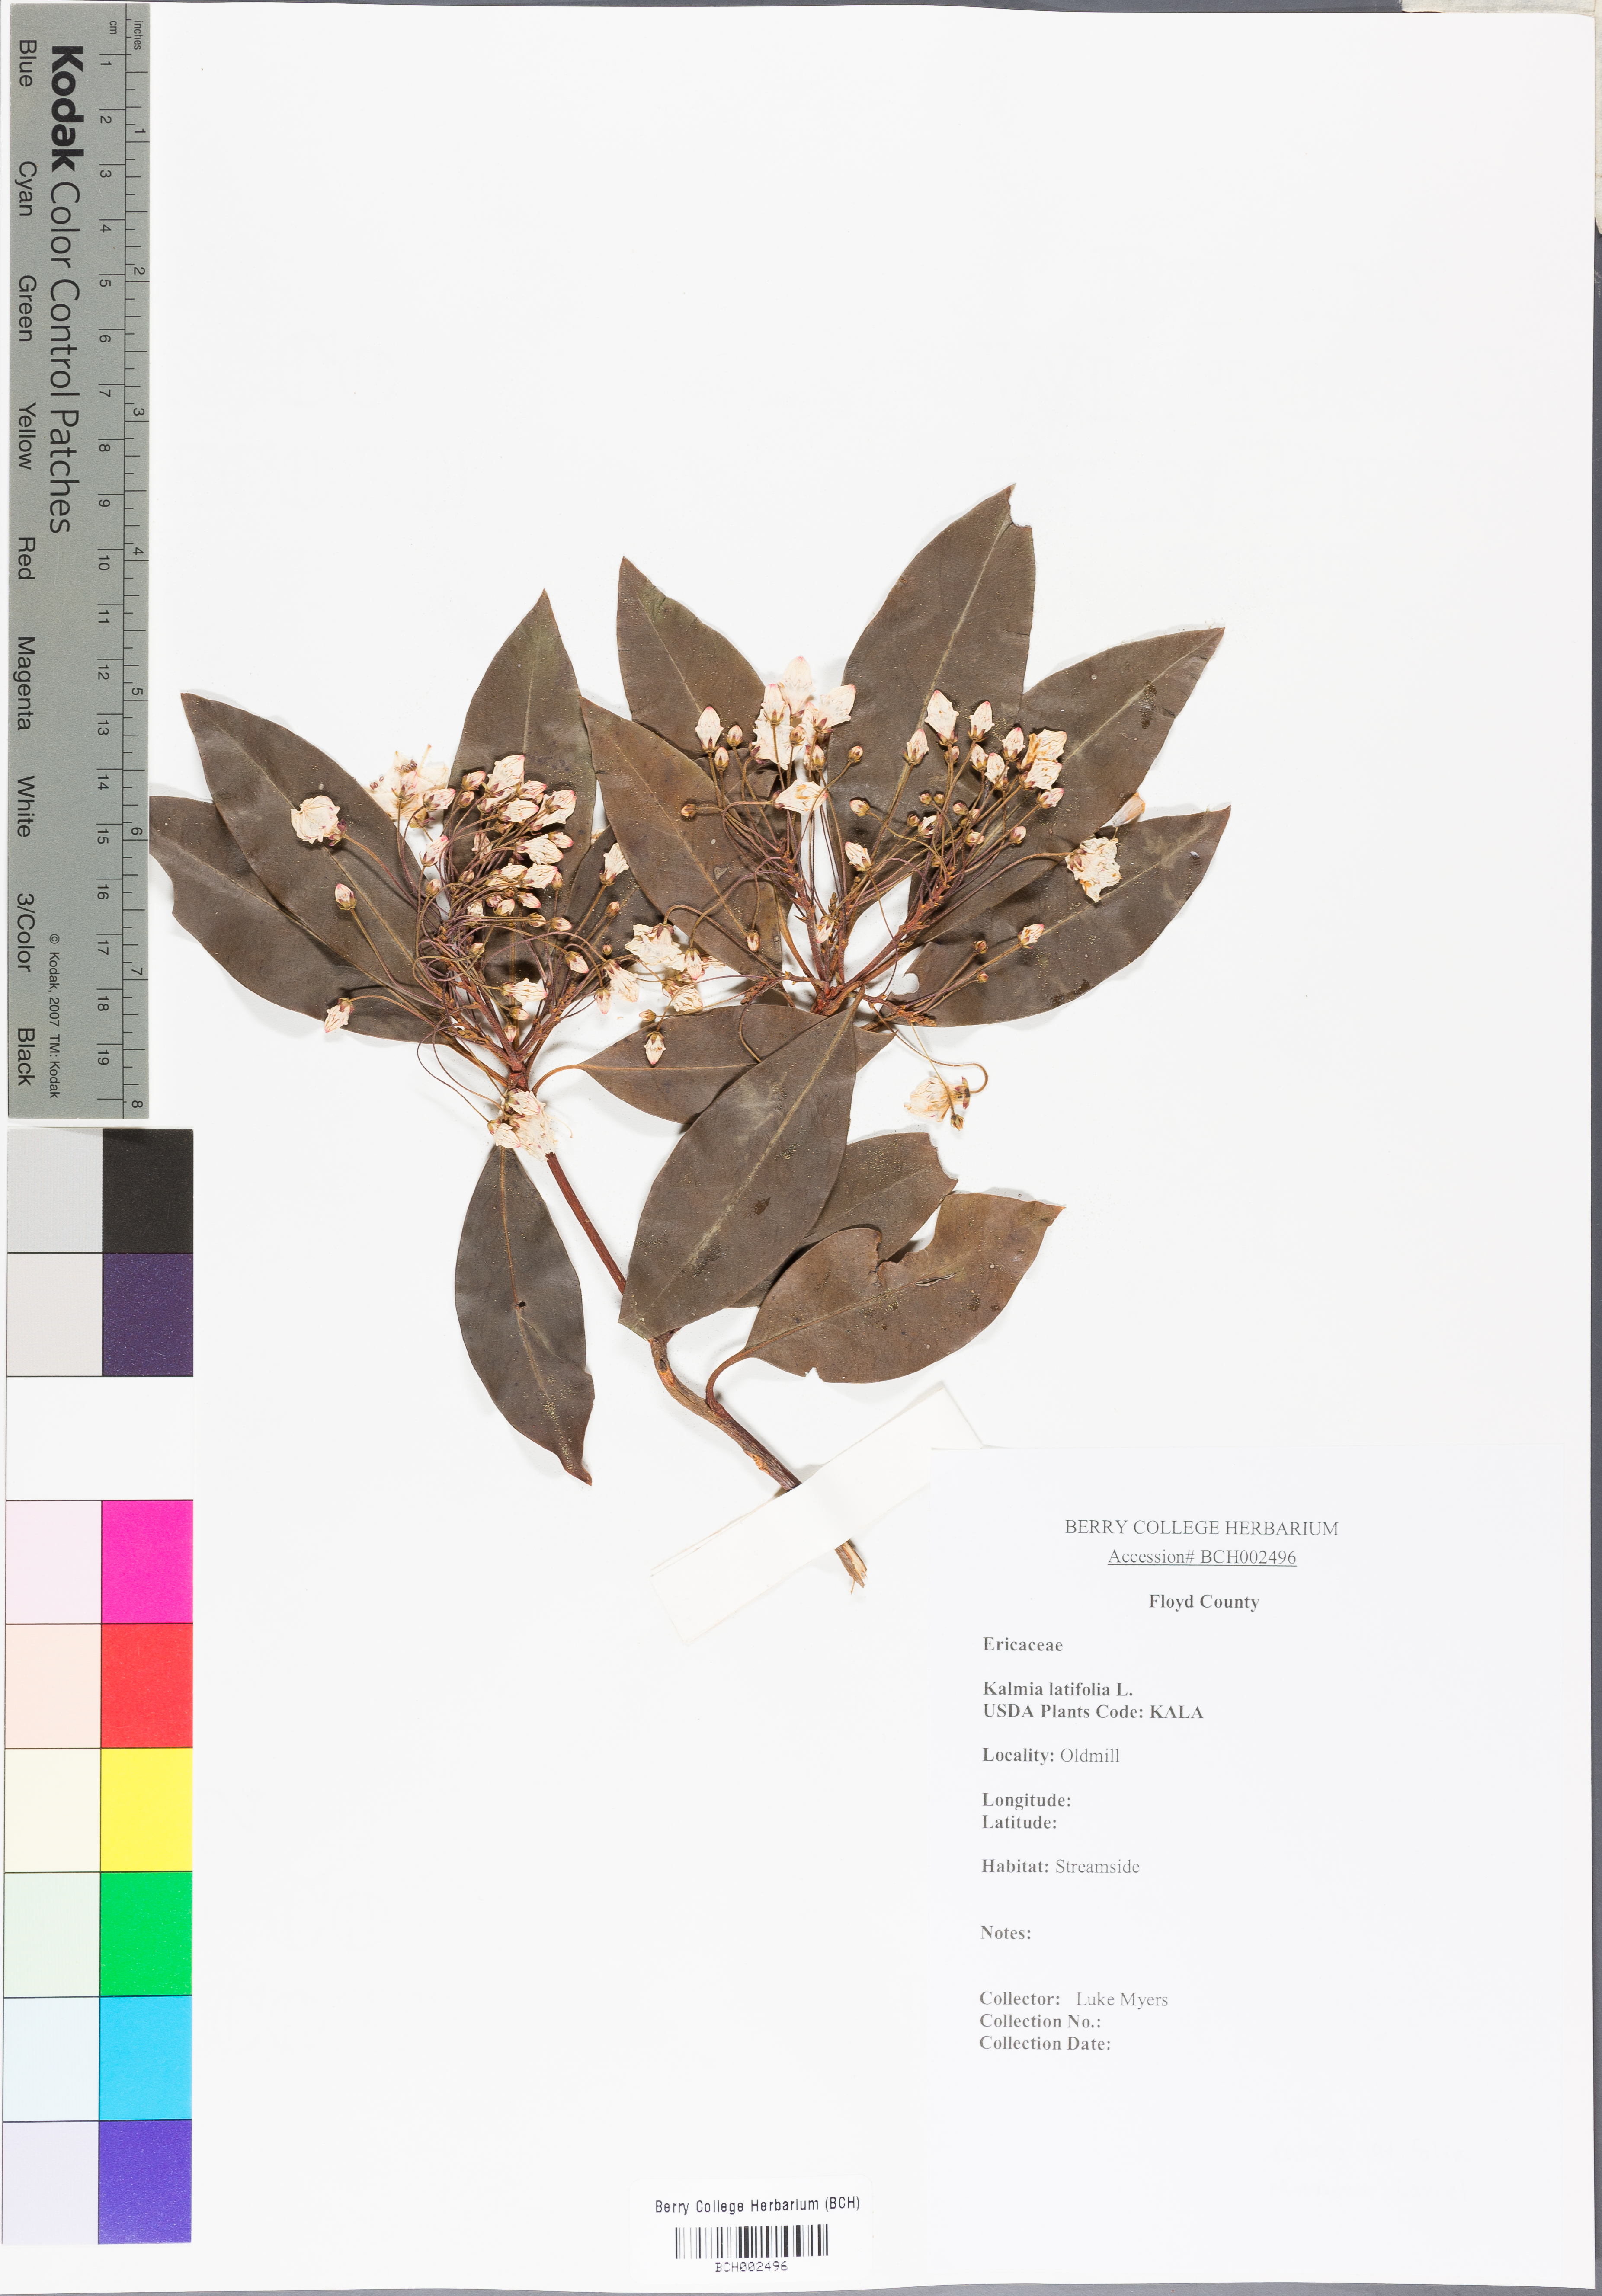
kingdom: Plantae
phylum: Tracheophyta
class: Magnoliopsida
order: Ericales
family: Ericaceae
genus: Kalmia
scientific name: Kalmia latifolia
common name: Mountain-laurel
